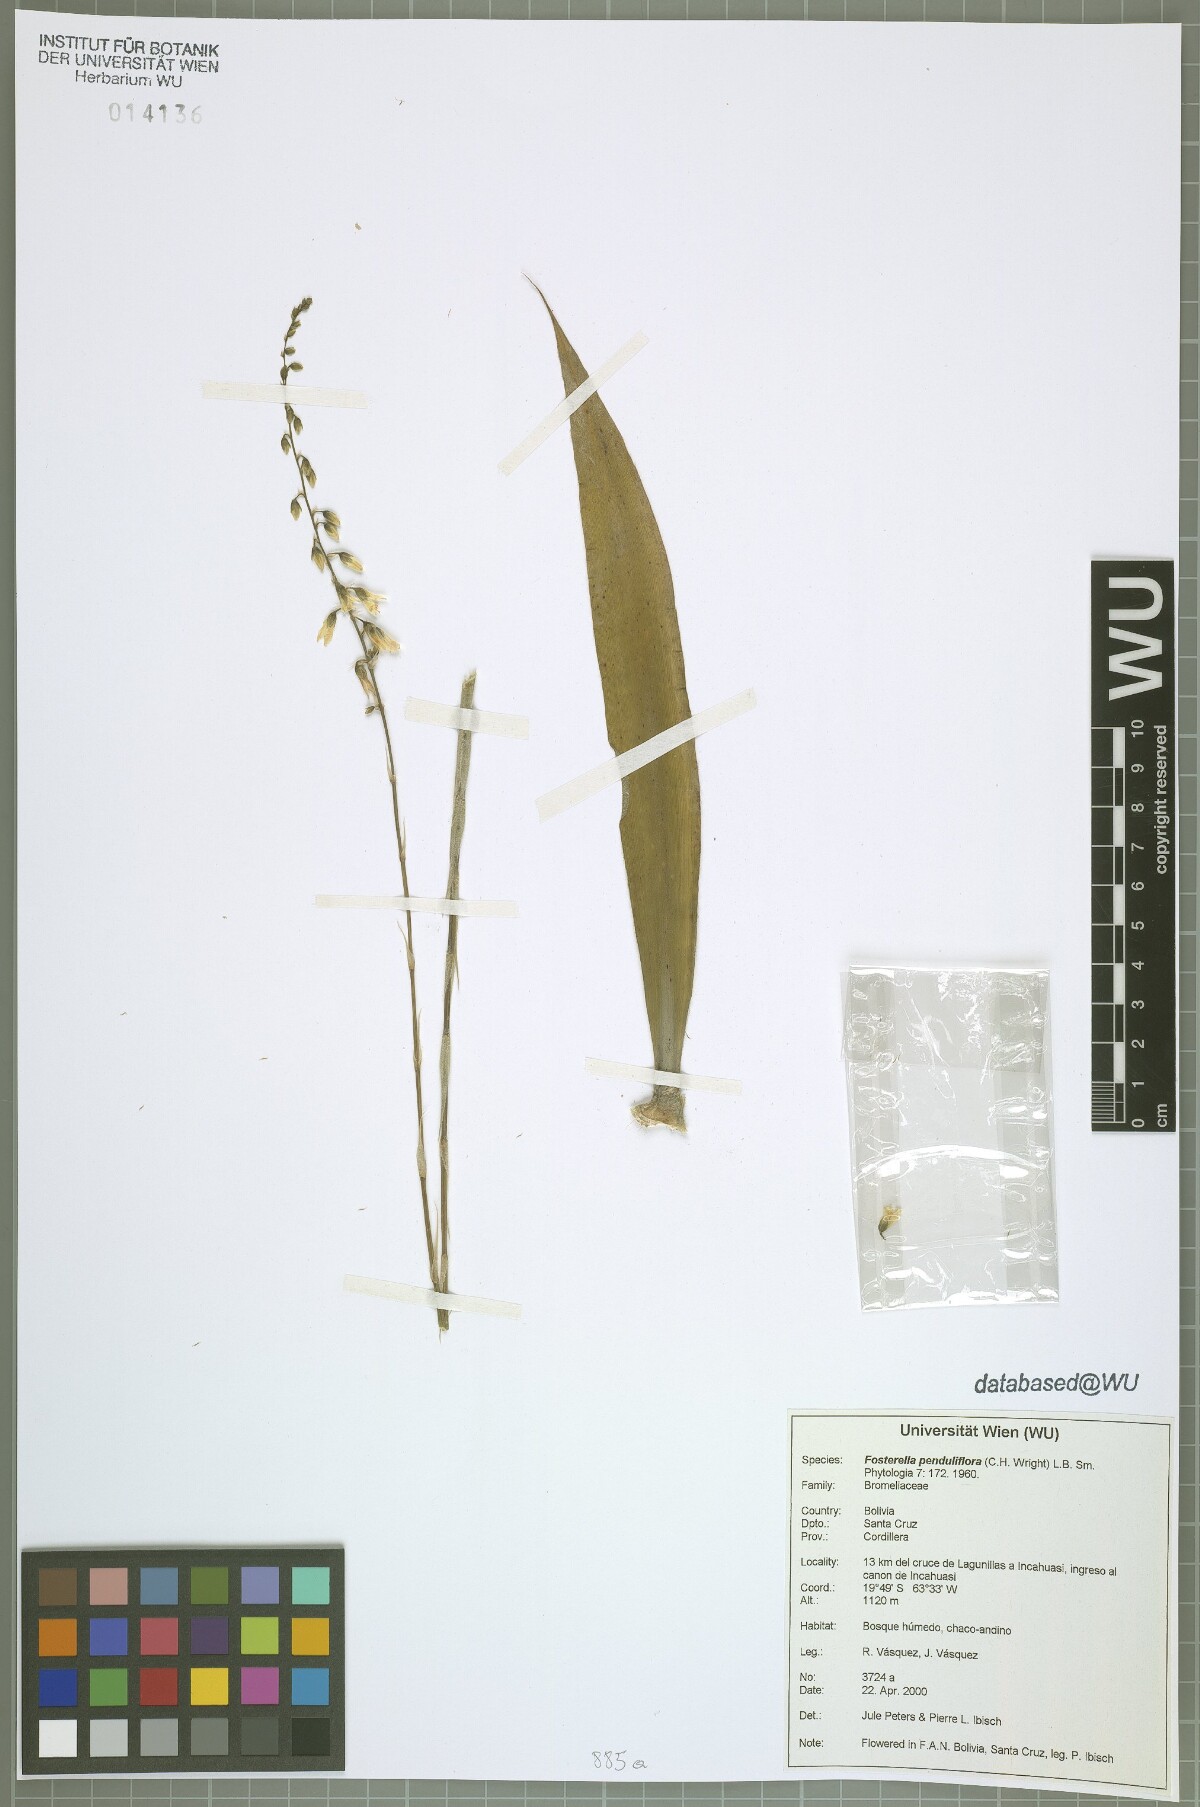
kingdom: Plantae
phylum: Tracheophyta
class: Liliopsida
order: Poales
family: Bromeliaceae
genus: Fosterella
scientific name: Fosterella penduliflora
